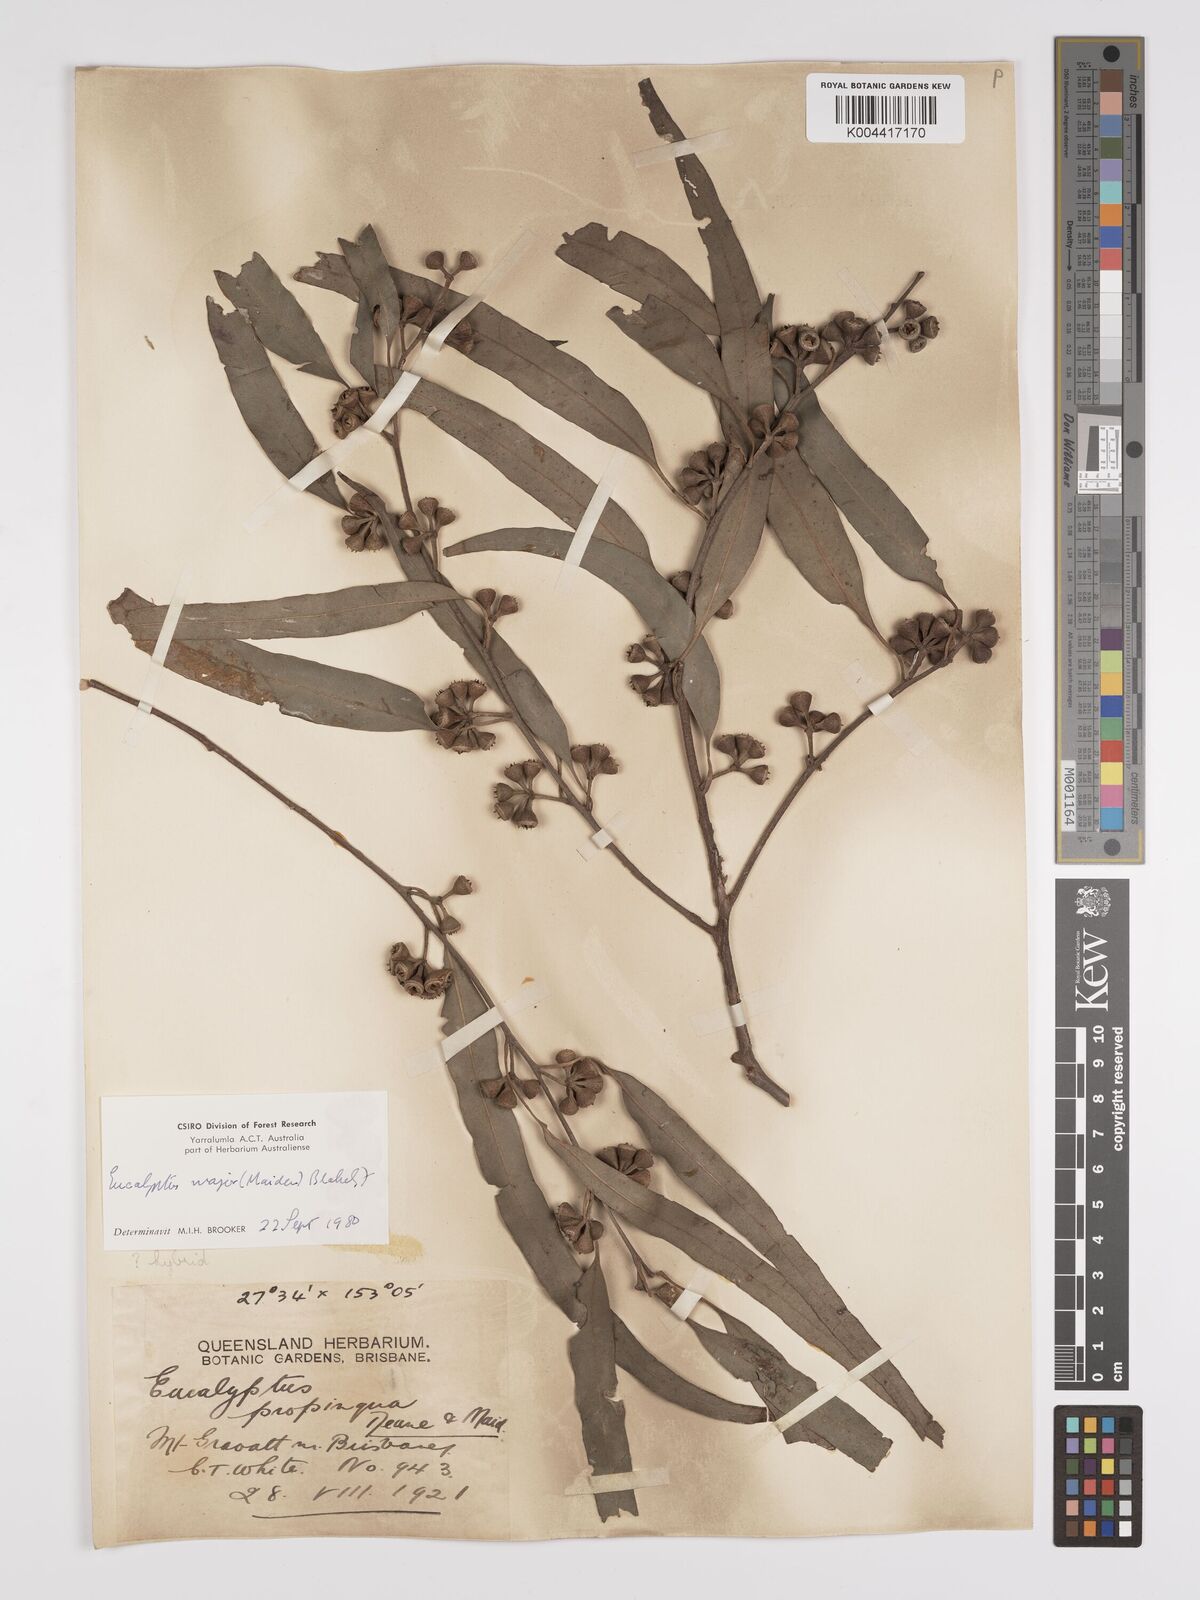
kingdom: Plantae
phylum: Tracheophyta
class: Magnoliopsida
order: Myrtales
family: Myrtaceae
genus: Eucalyptus
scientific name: Eucalyptus major
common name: Queensland grey gum
